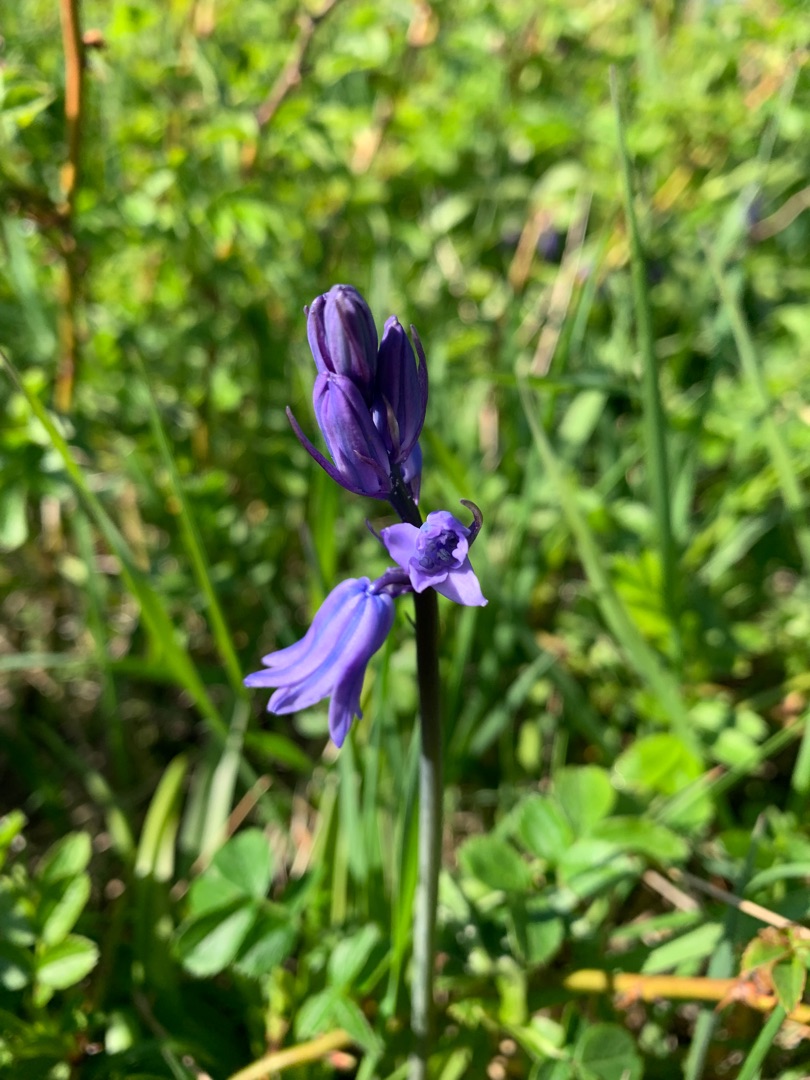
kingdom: Plantae
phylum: Tracheophyta
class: Liliopsida
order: Asparagales
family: Asparagaceae
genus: Hyacinthoides
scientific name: Hyacinthoides massartiana
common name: Hybrid-klokkeskilla
